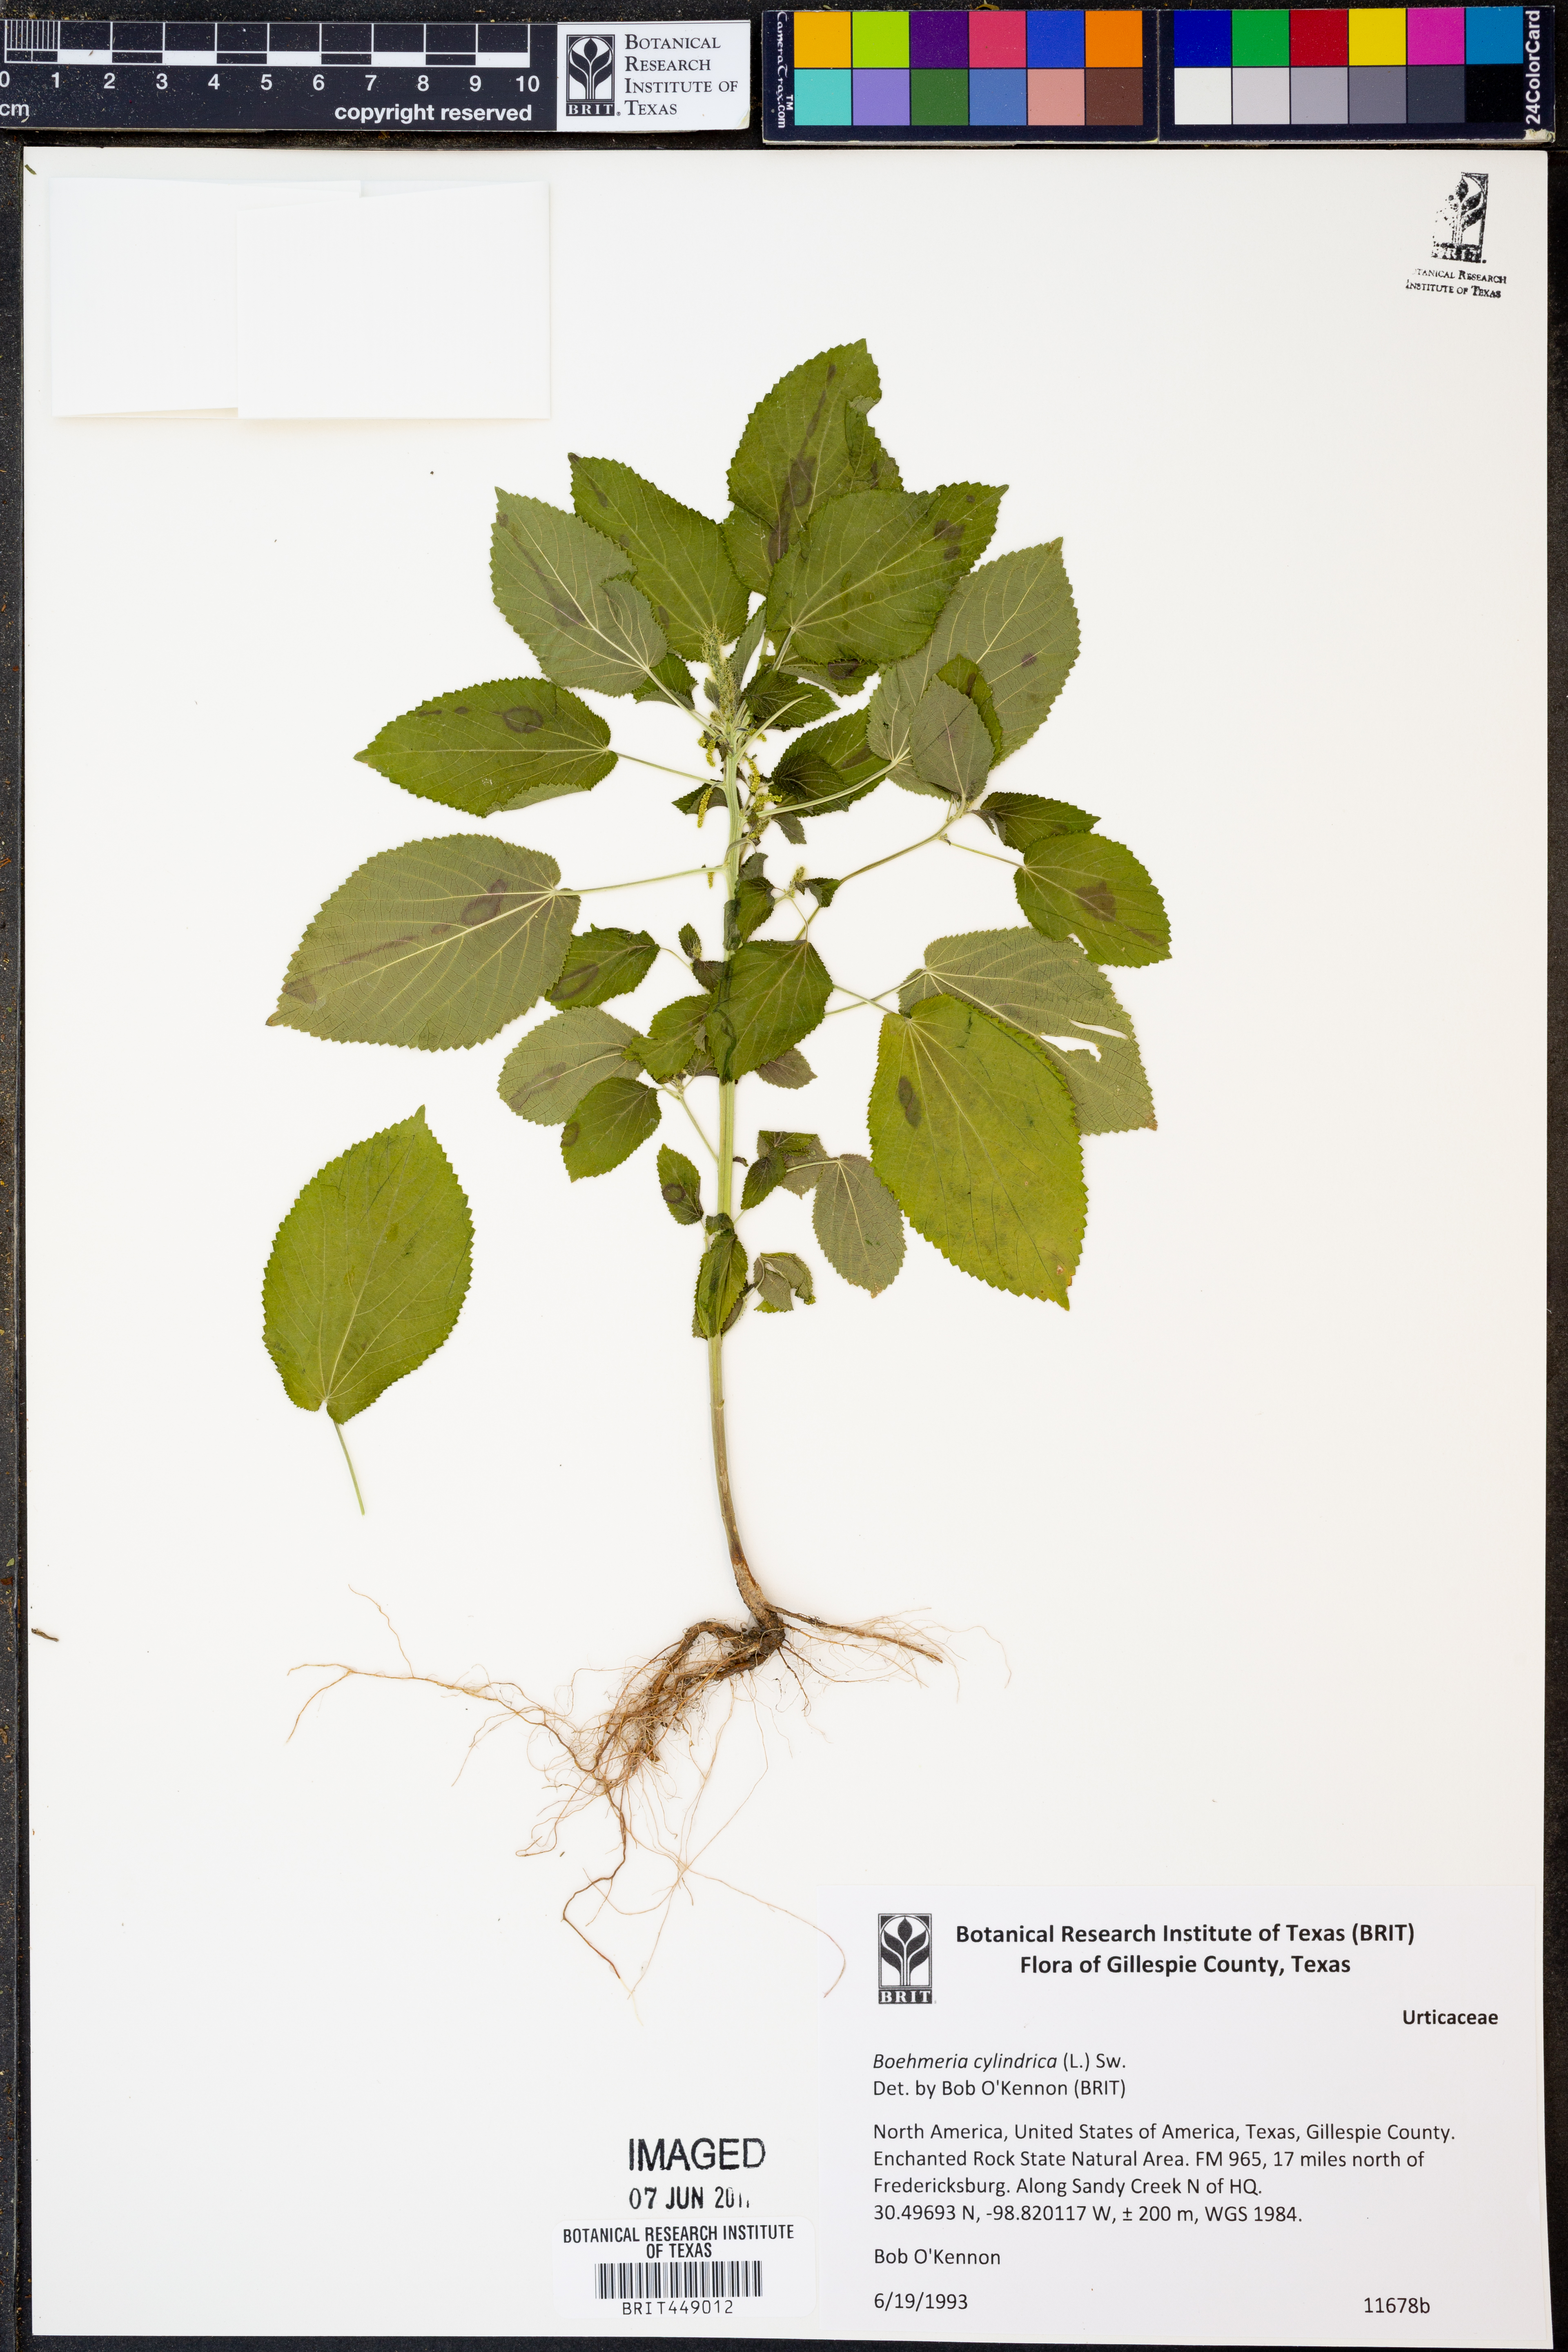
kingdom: Plantae
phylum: Tracheophyta
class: Magnoliopsida
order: Rosales
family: Urticaceae
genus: Boehmeria
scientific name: Boehmeria cylindrica
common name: Bog-hemp
